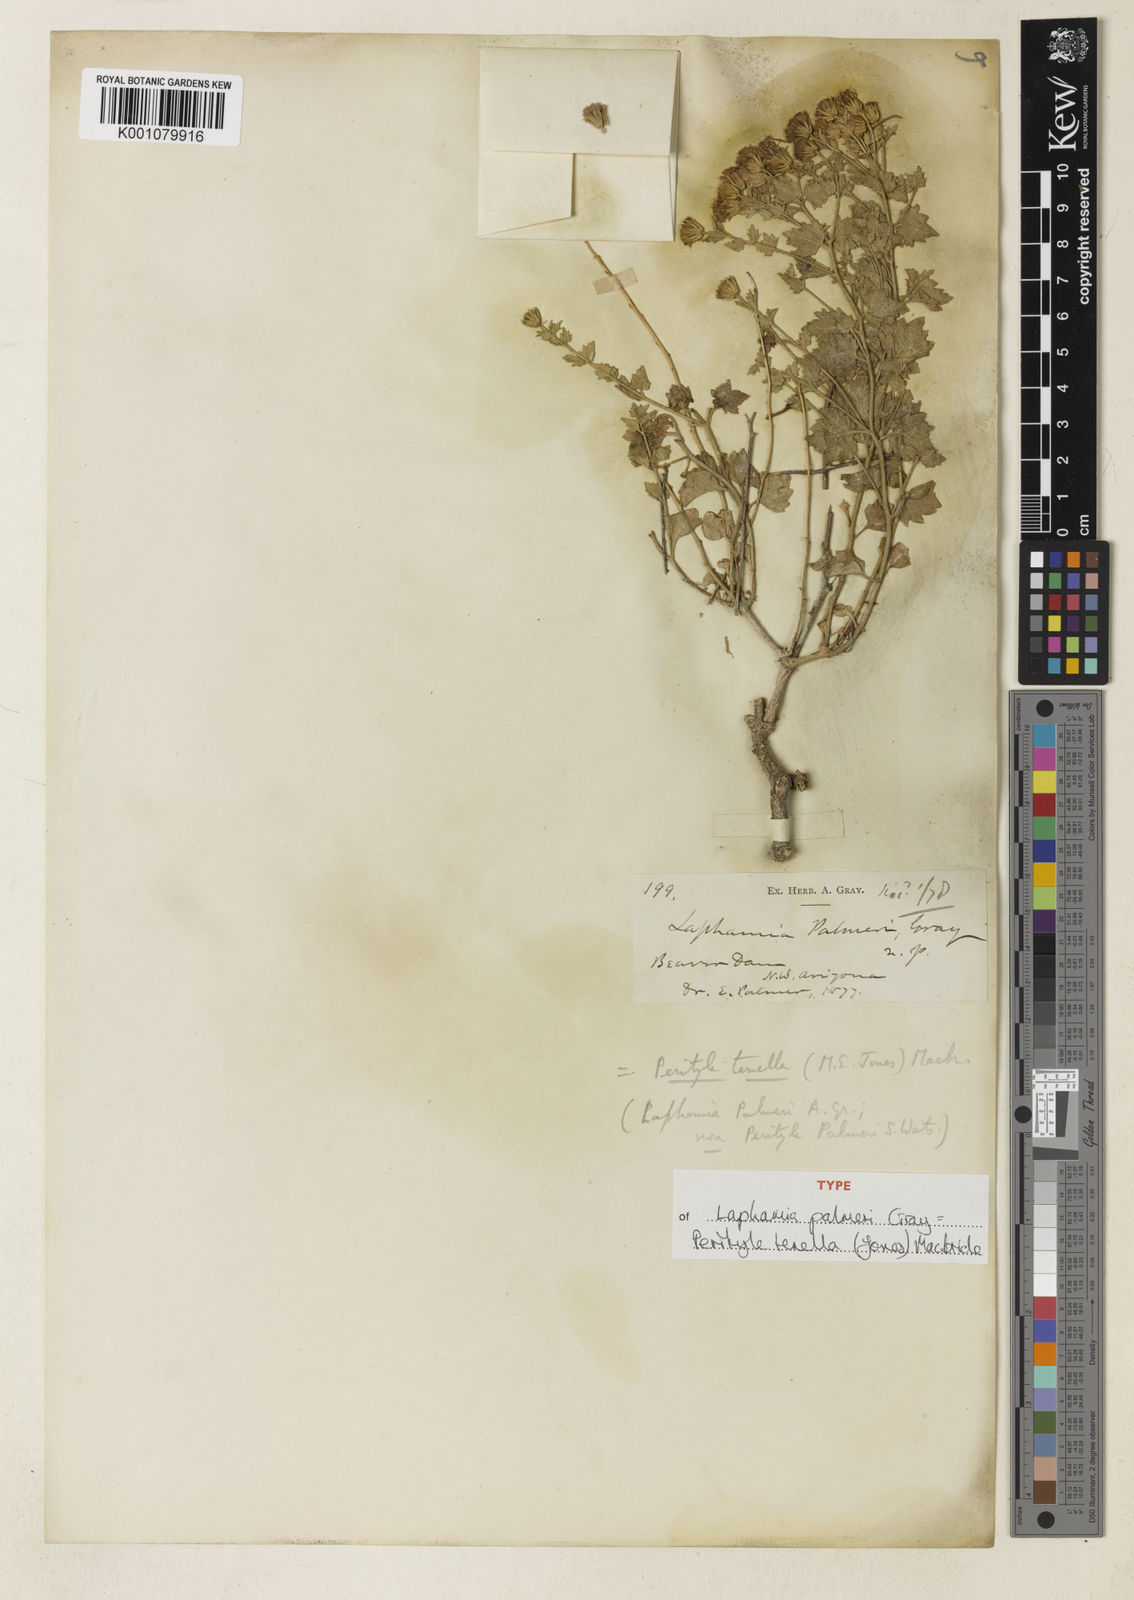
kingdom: Plantae
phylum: Tracheophyta
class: Magnoliopsida
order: Asterales
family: Asteraceae
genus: Laphamia
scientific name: Laphamia sanchezii
